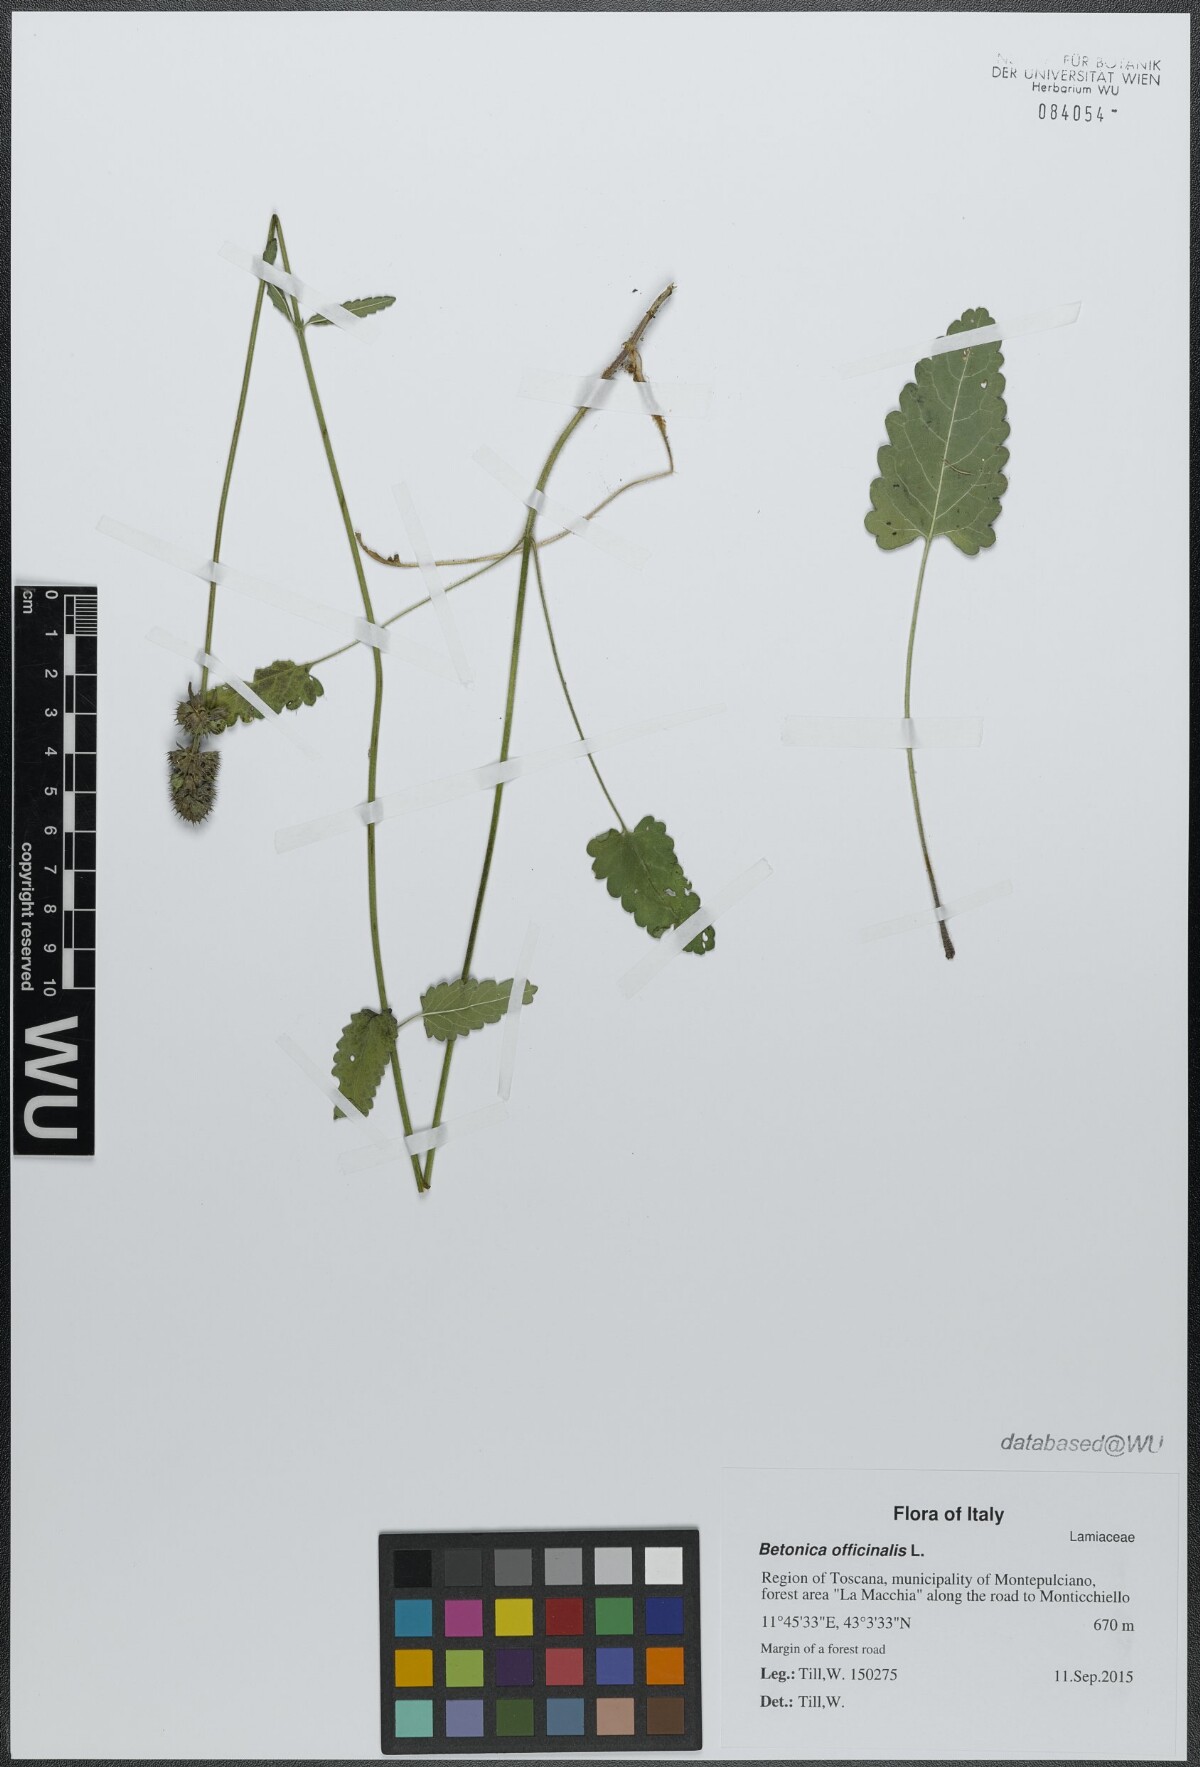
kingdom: Plantae
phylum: Tracheophyta
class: Magnoliopsida
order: Lamiales
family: Lamiaceae
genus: Betonica
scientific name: Betonica officinalis
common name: Bishop's-wort
